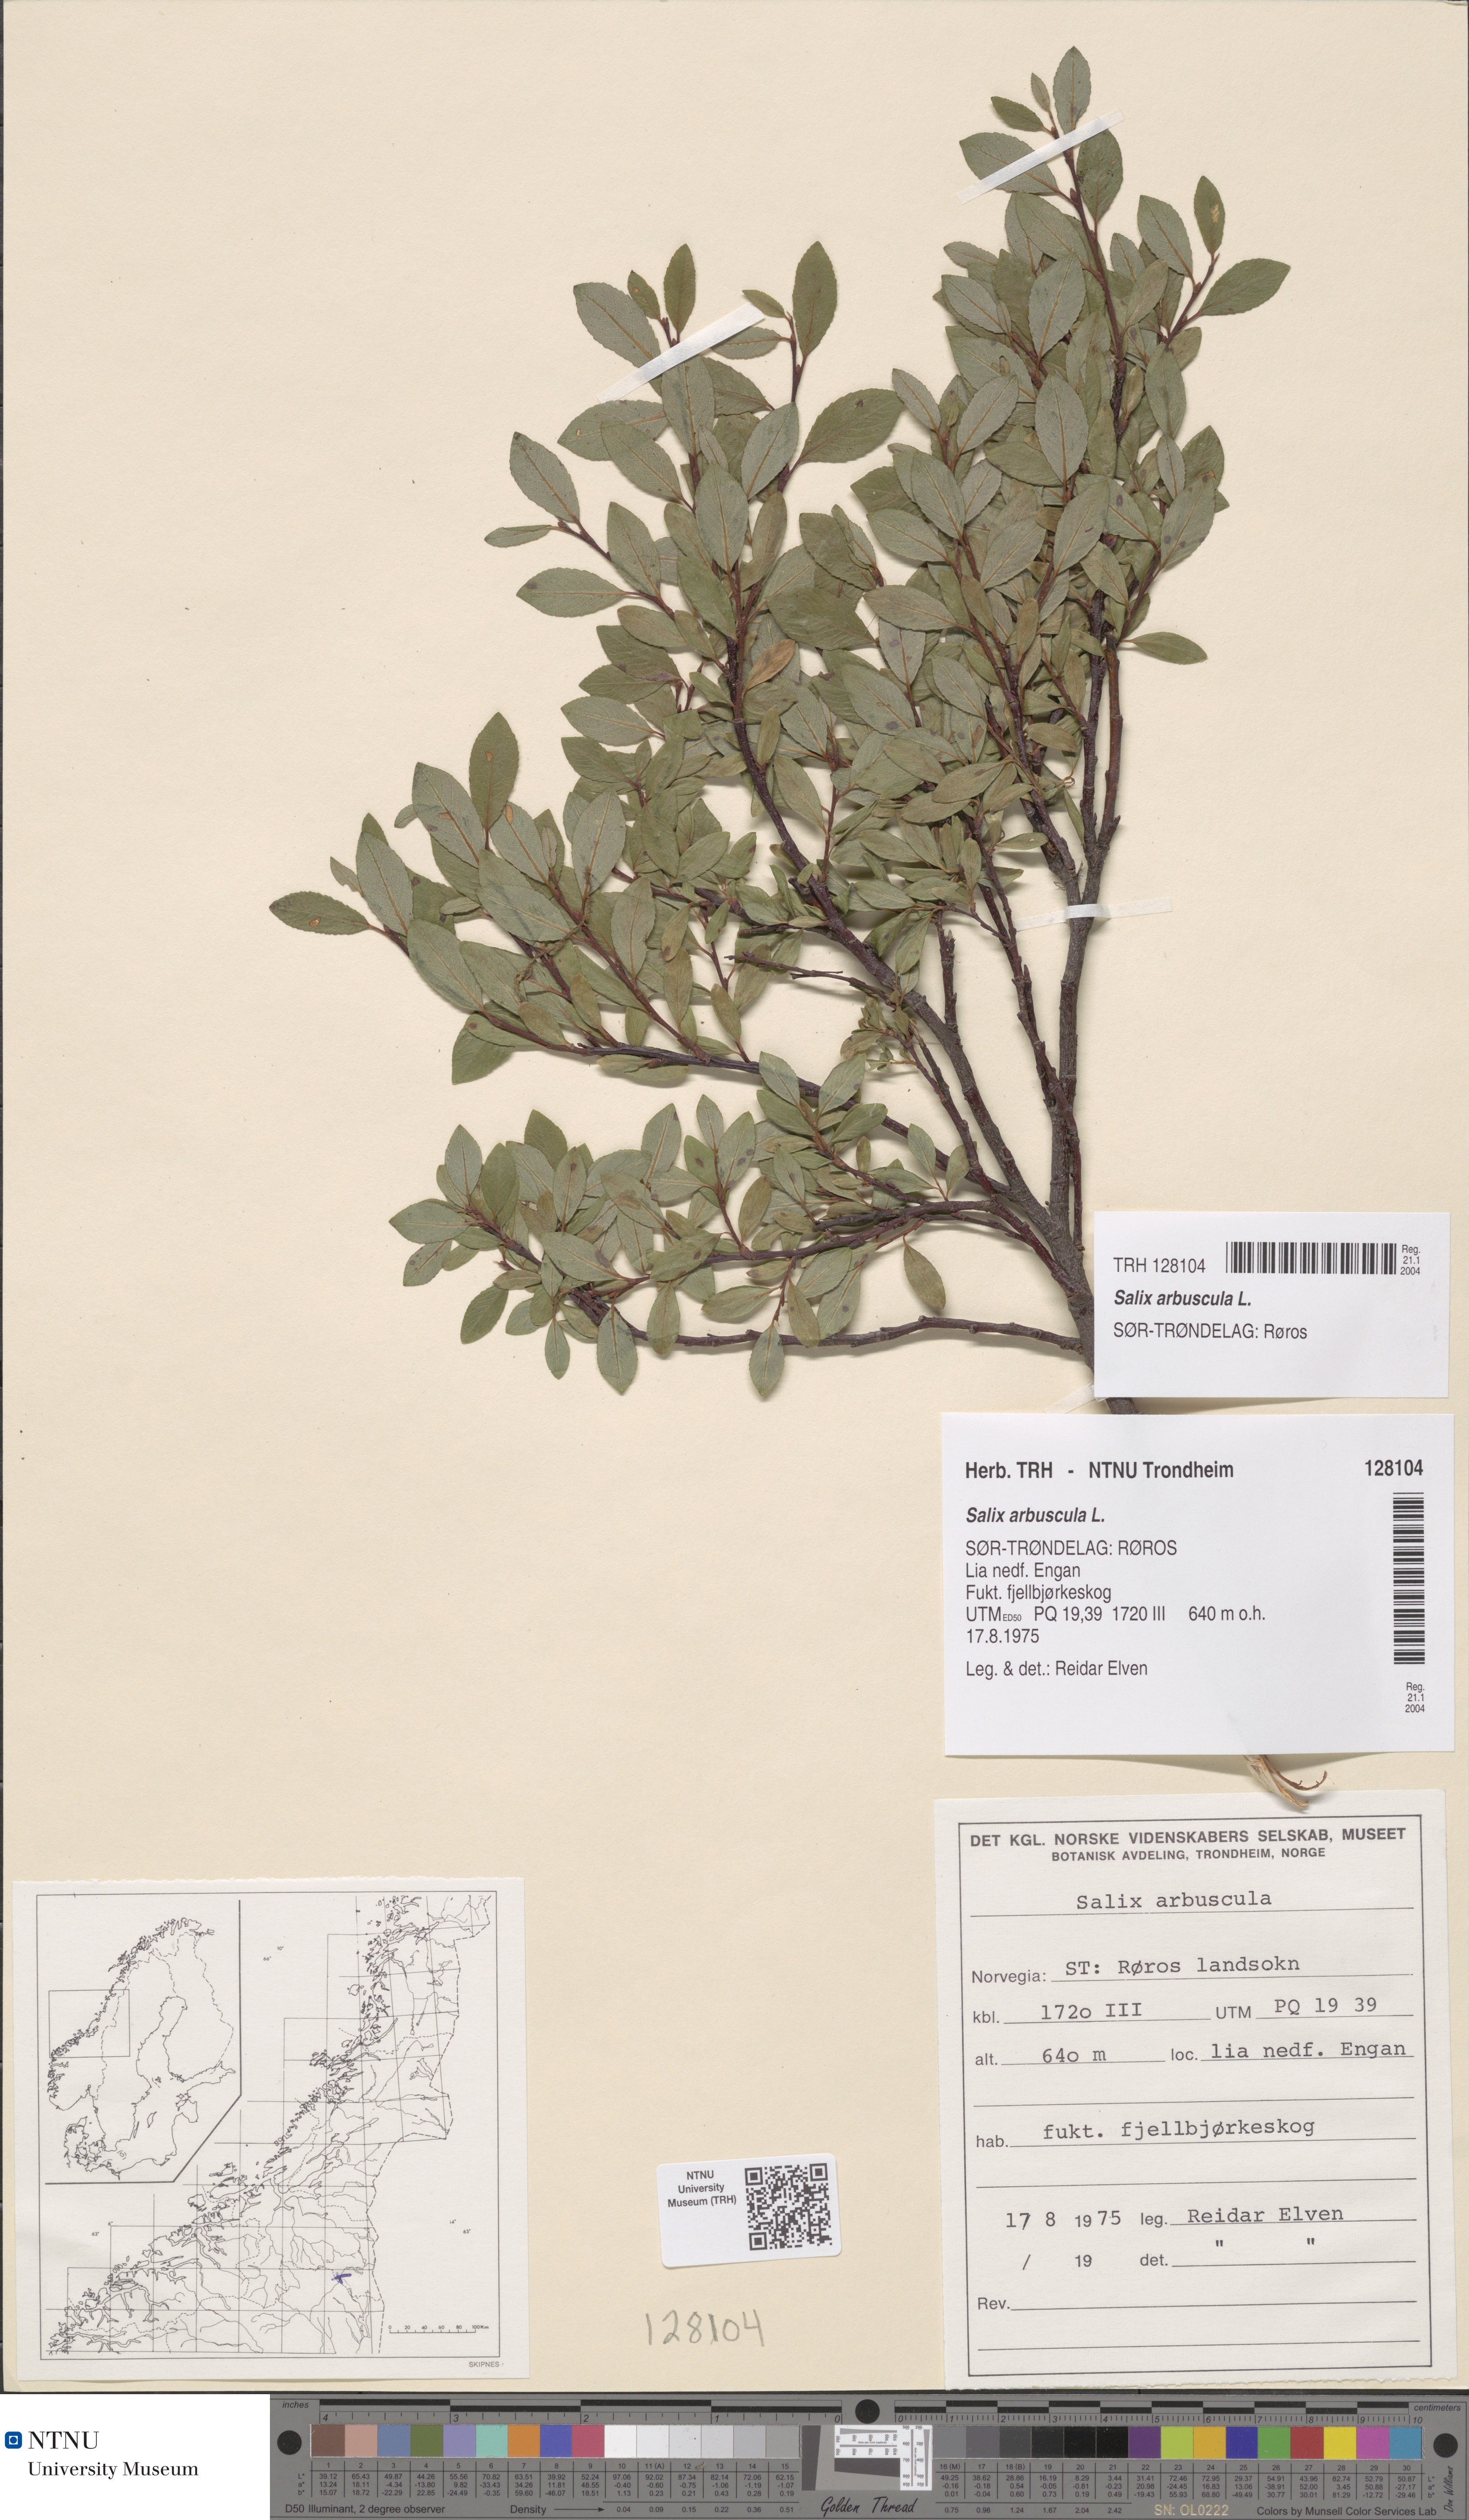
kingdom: Plantae
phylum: Tracheophyta
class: Magnoliopsida
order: Malpighiales
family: Salicaceae
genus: Salix
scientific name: Salix arbuscula
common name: Mountain willow
